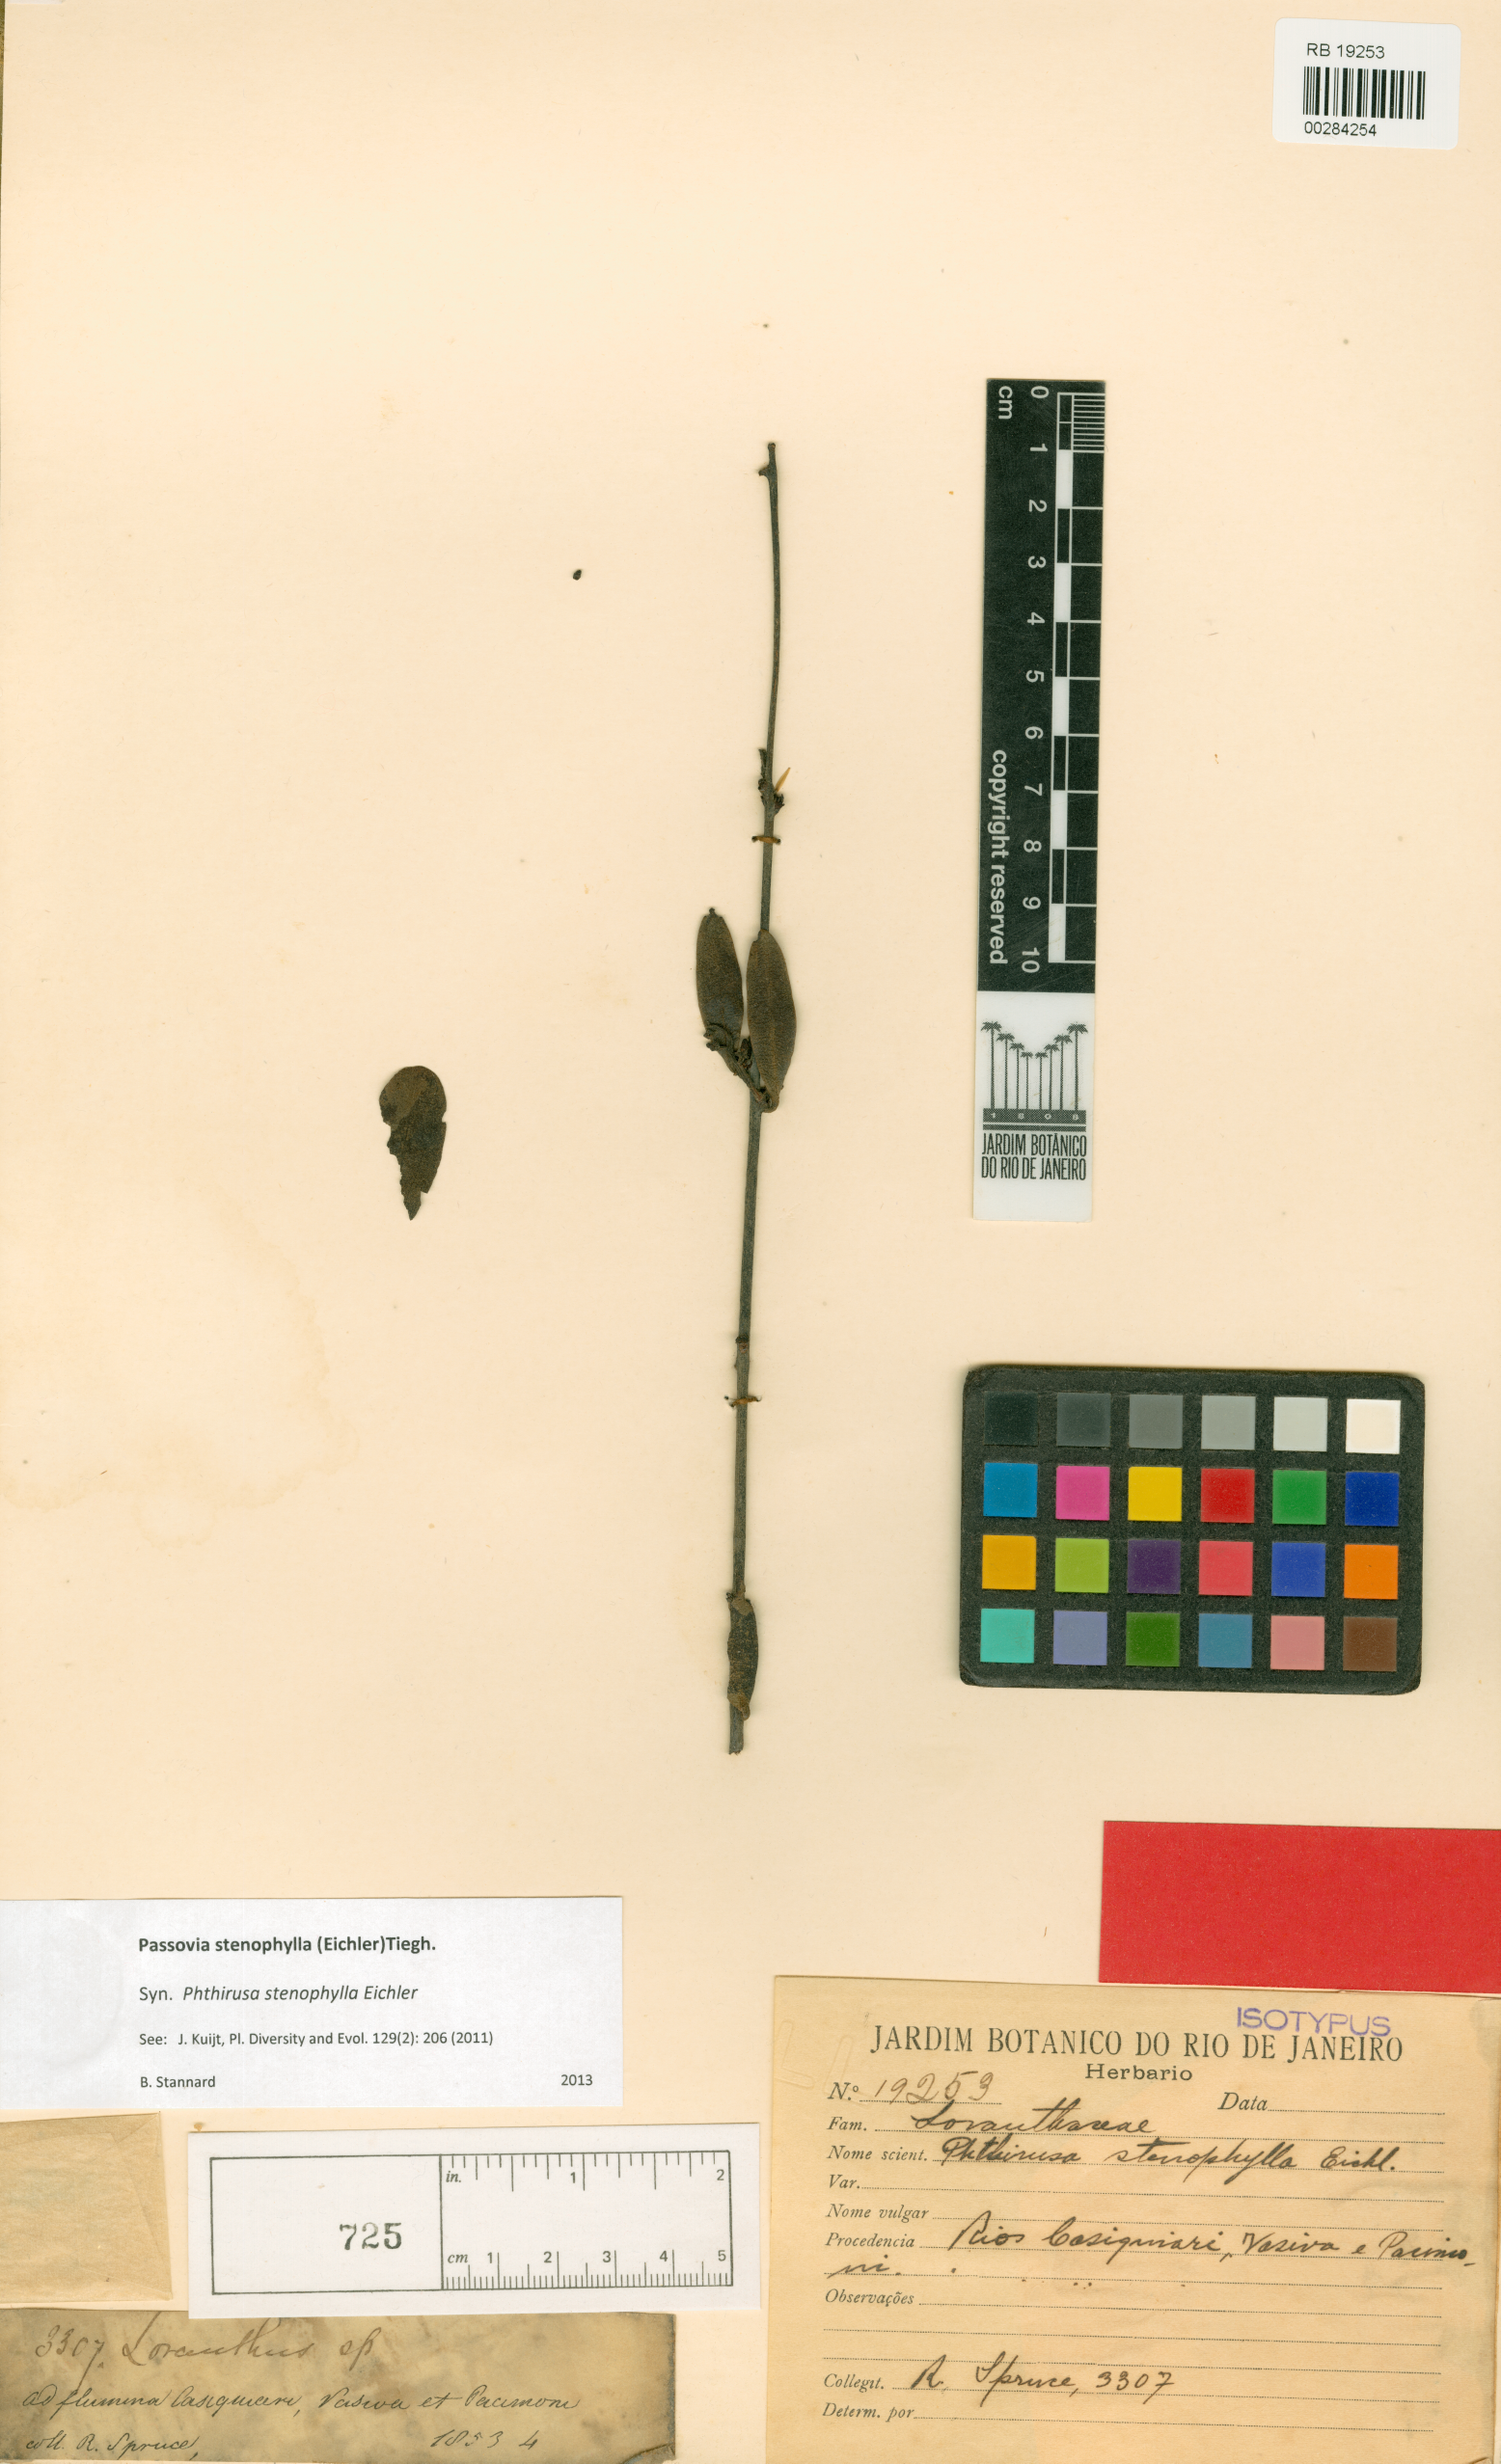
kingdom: Plantae
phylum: Tracheophyta
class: Magnoliopsida
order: Santalales
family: Loranthaceae
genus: Phthirusa
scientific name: Phthirusa stenophylla
